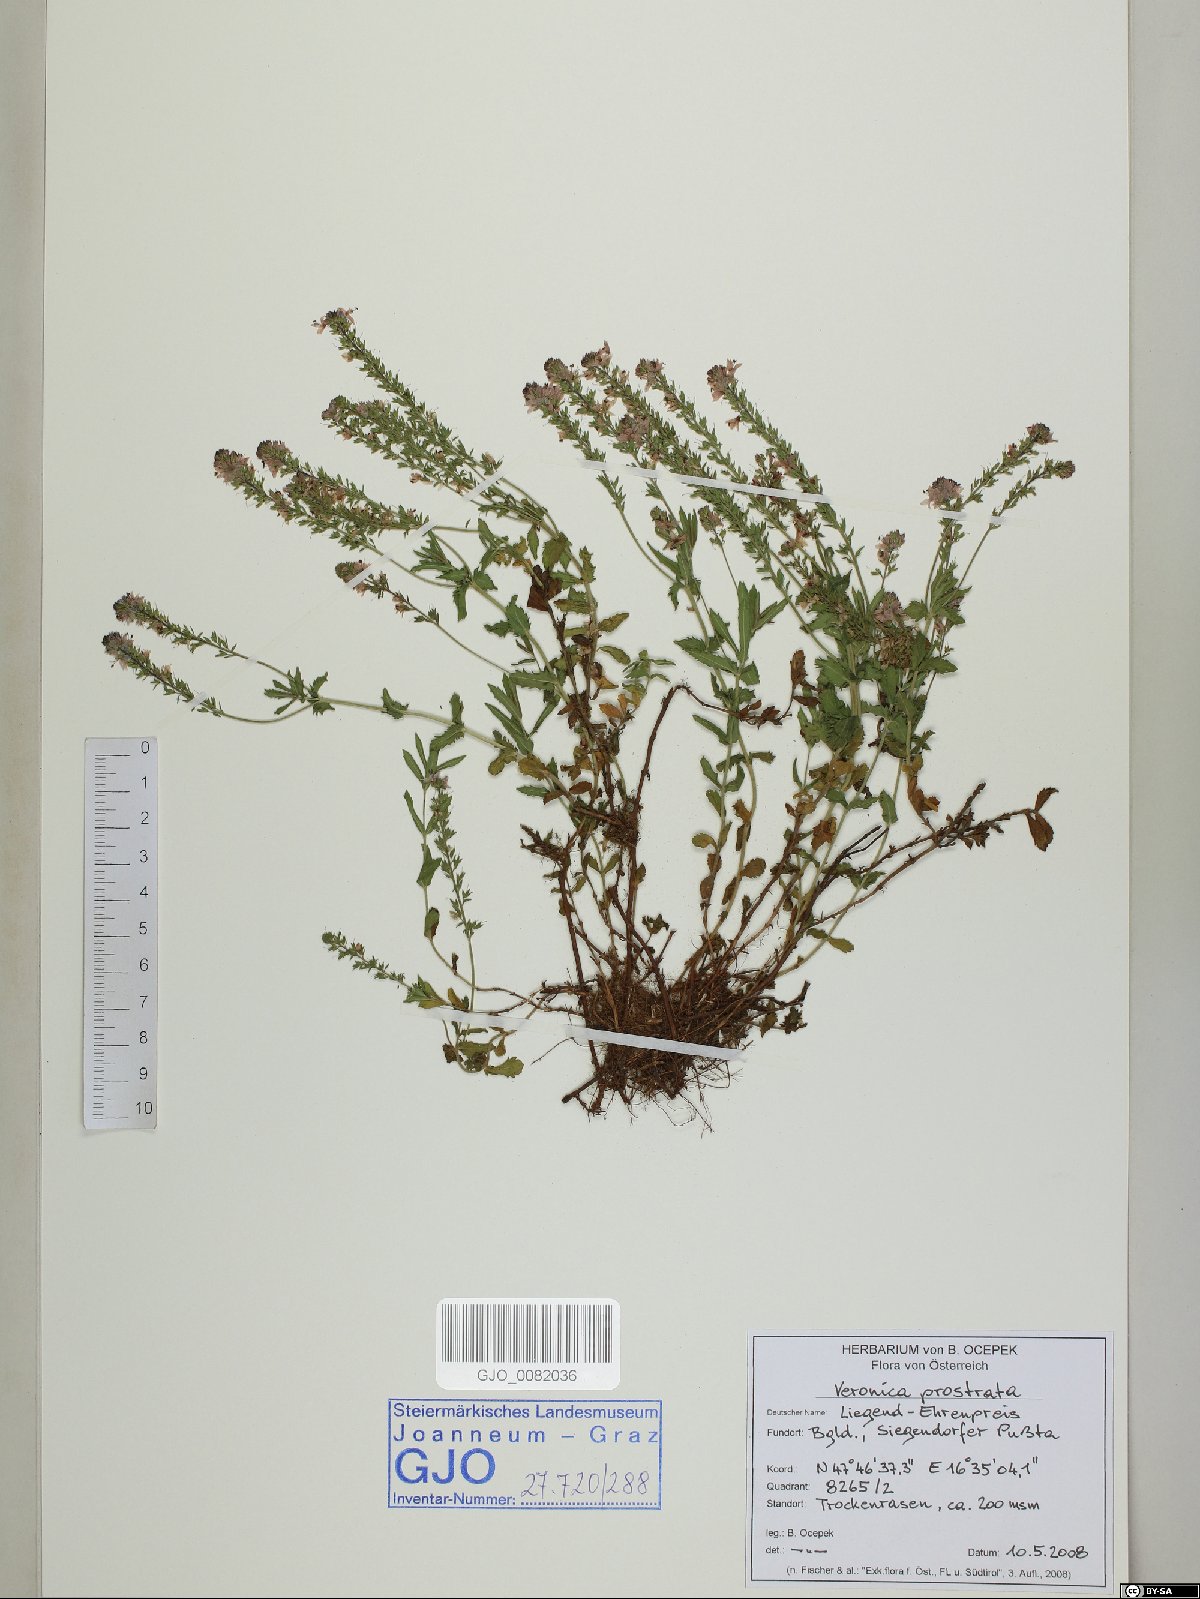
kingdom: Plantae
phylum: Tracheophyta
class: Magnoliopsida
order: Lamiales
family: Plantaginaceae
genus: Veronica
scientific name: Veronica prostrata
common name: Prostrate speedwell
